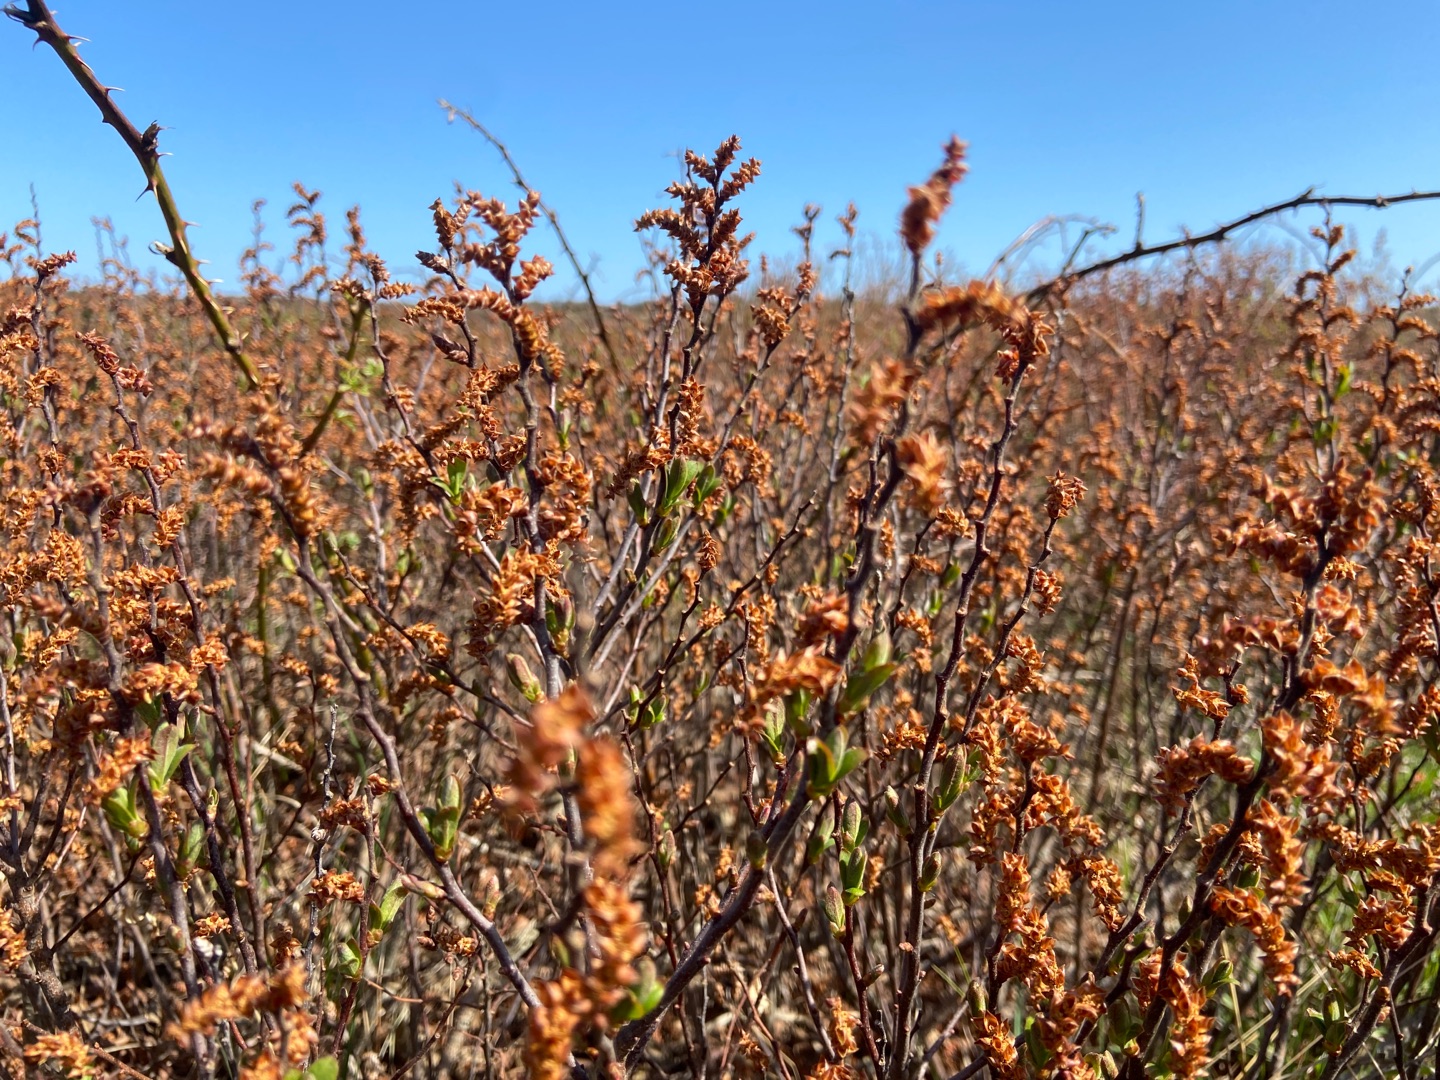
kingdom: Plantae
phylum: Tracheophyta
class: Magnoliopsida
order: Fagales
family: Myricaceae
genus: Myrica
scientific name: Myrica gale
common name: Pors
